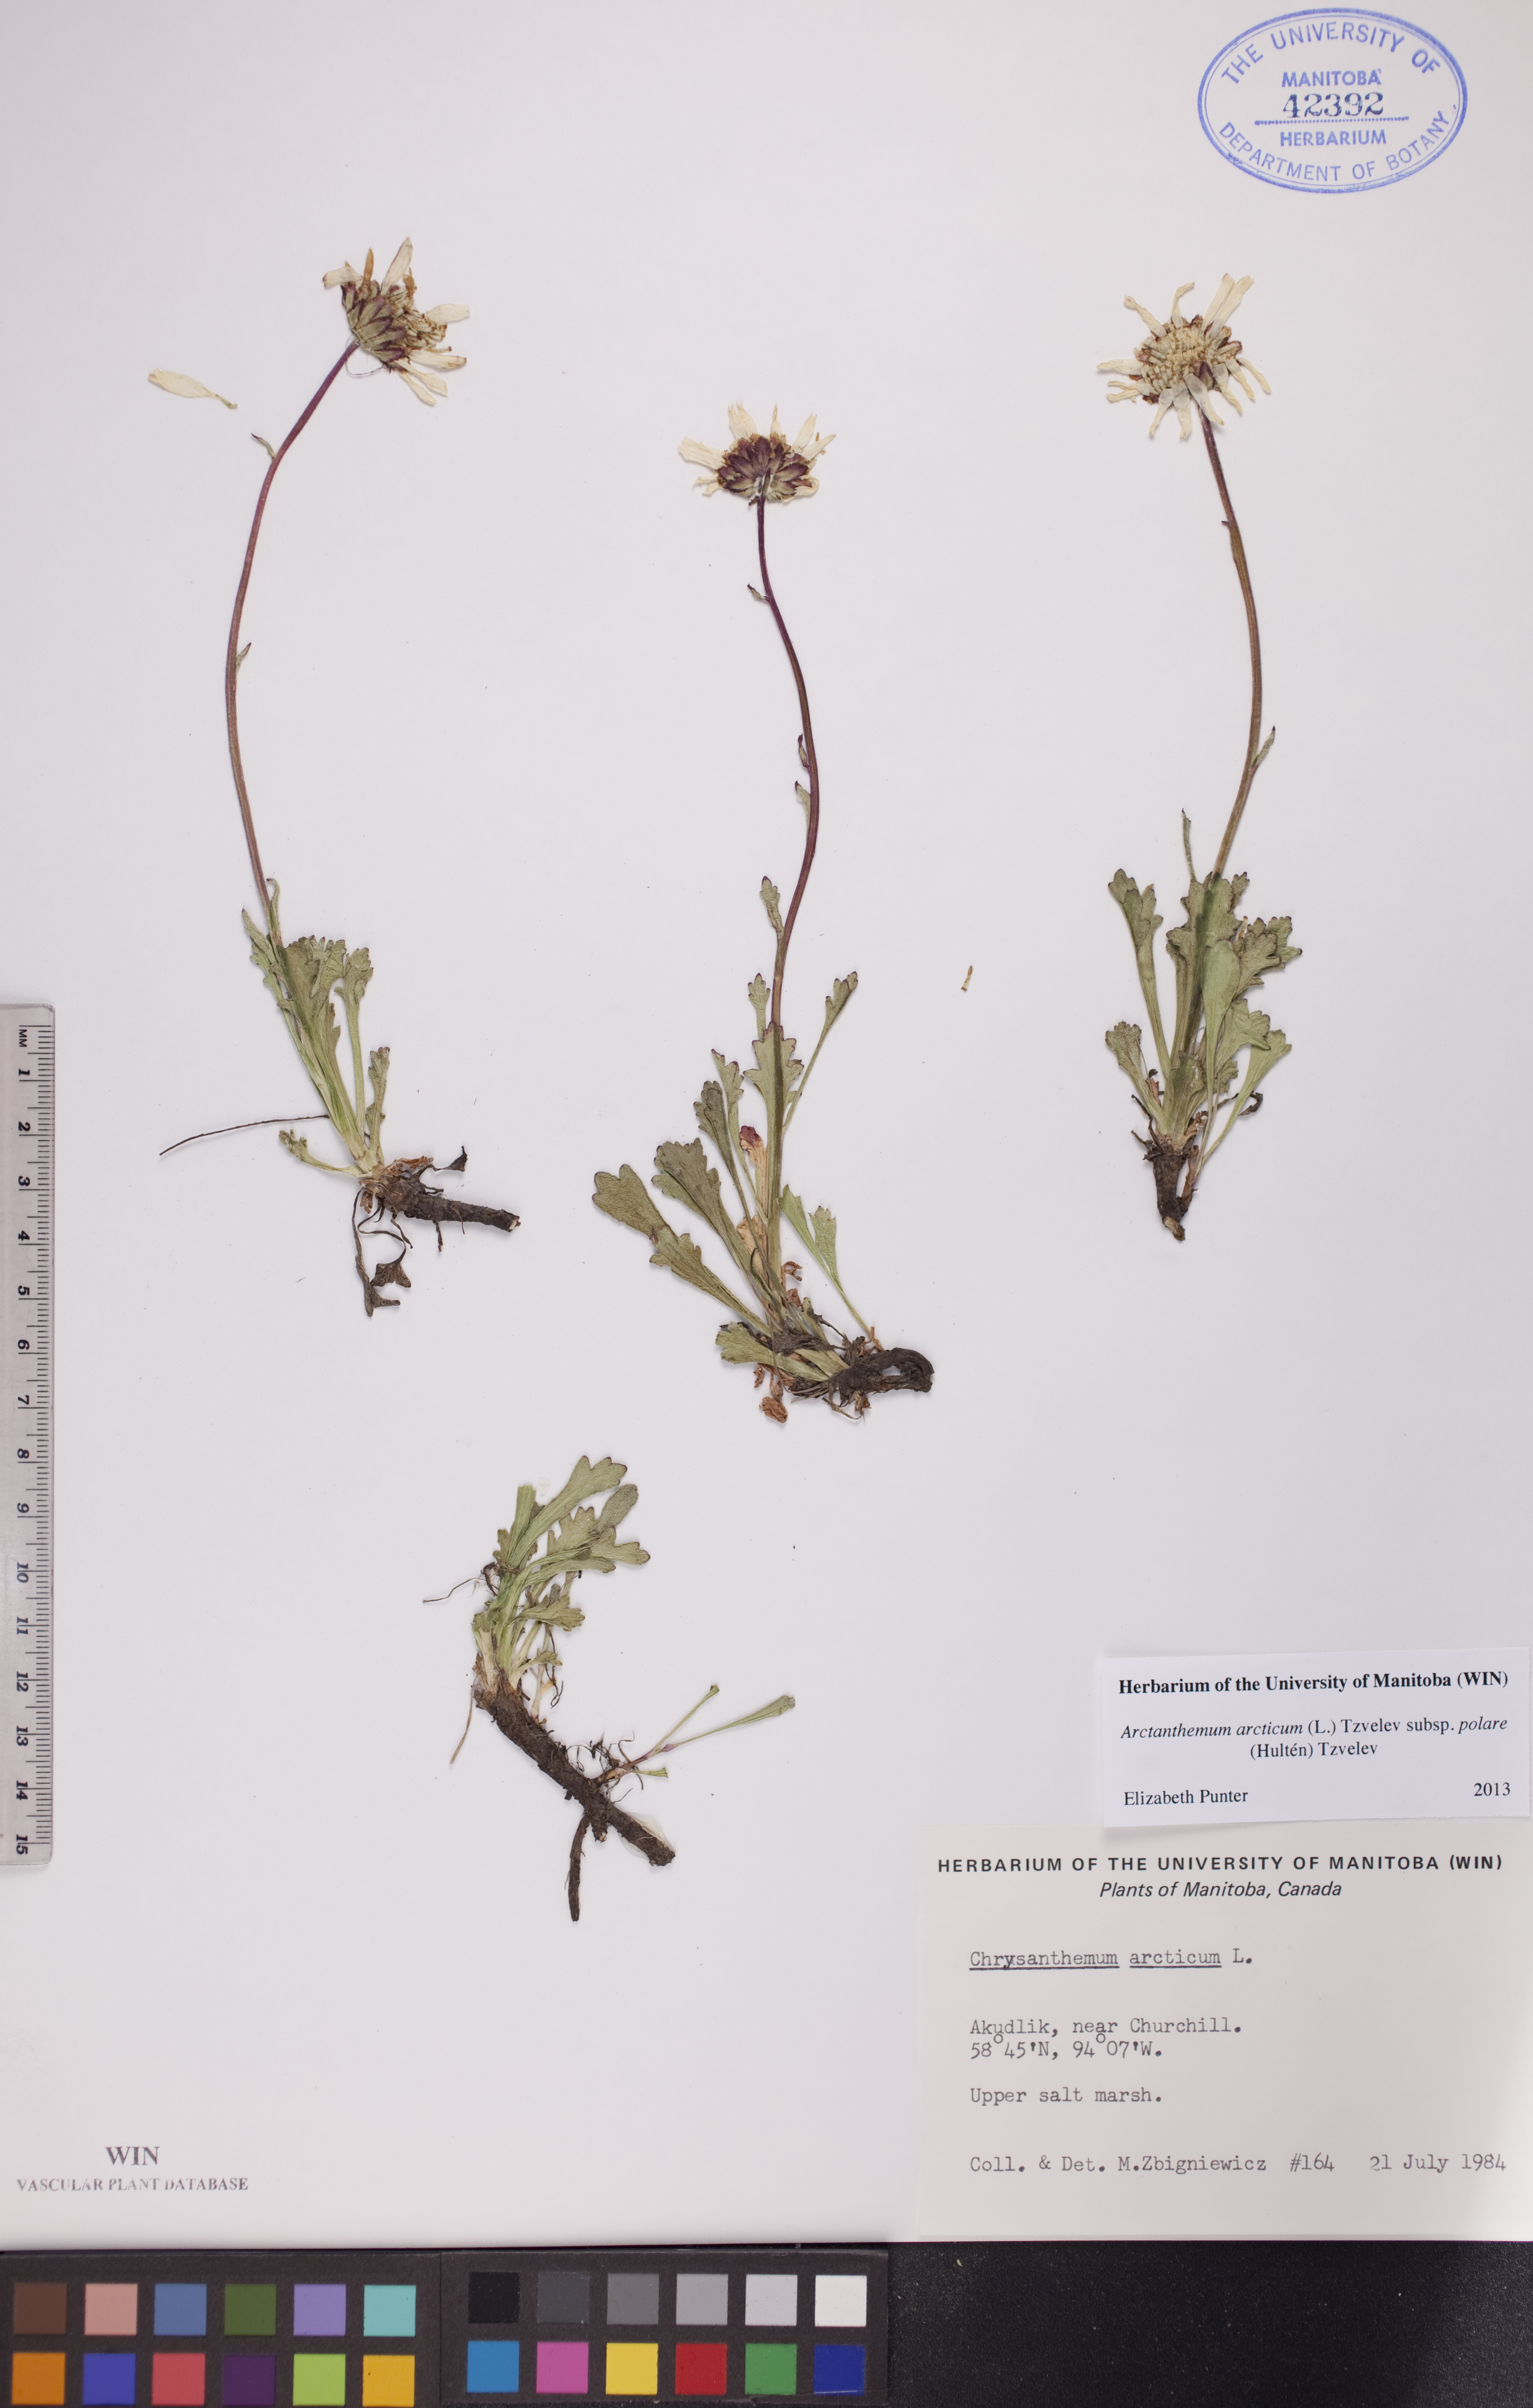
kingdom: Plantae
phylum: Tracheophyta
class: Magnoliopsida
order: Asterales
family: Asteraceae
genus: Arctanthemum
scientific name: Arctanthemum arcticum
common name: Arctic daisy
